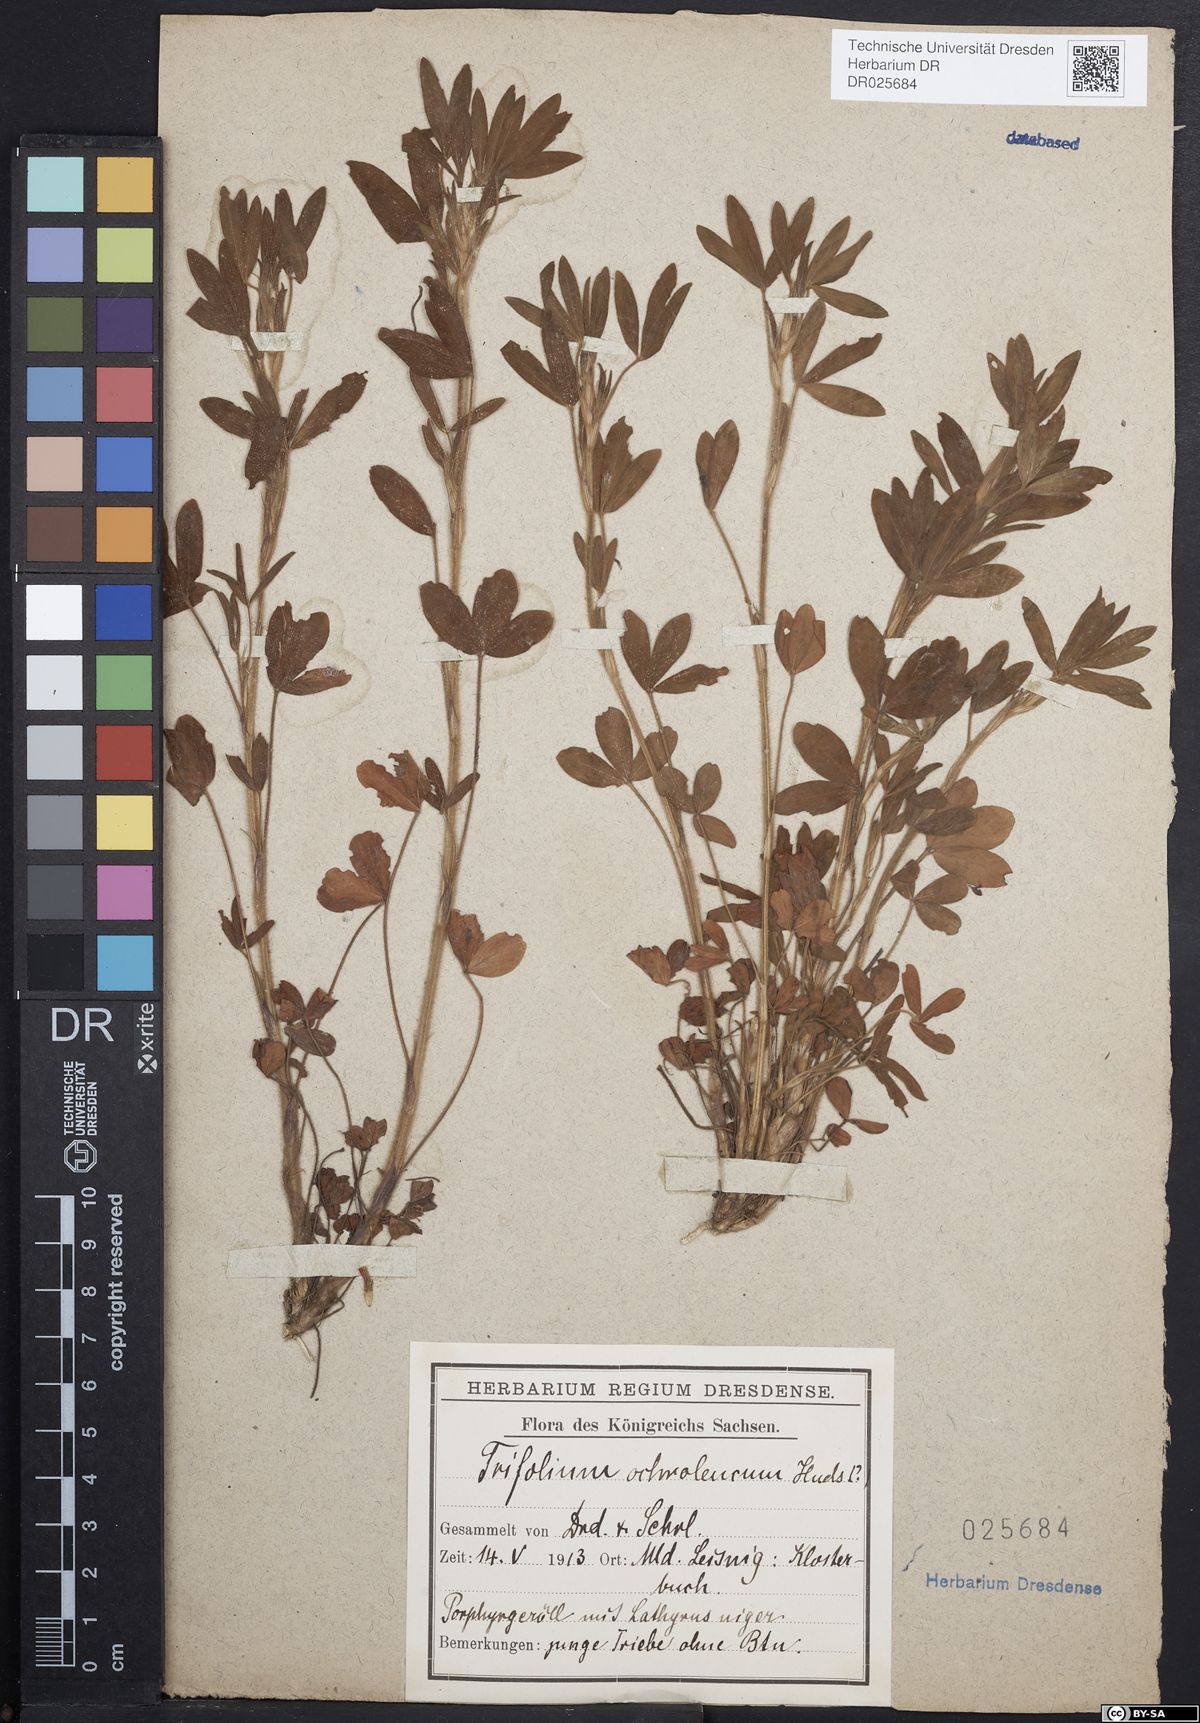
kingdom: Plantae
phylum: Tracheophyta
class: Magnoliopsida
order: Fabales
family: Fabaceae
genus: Trifolium
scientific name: Trifolium ochroleucon
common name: Sulphur clover
